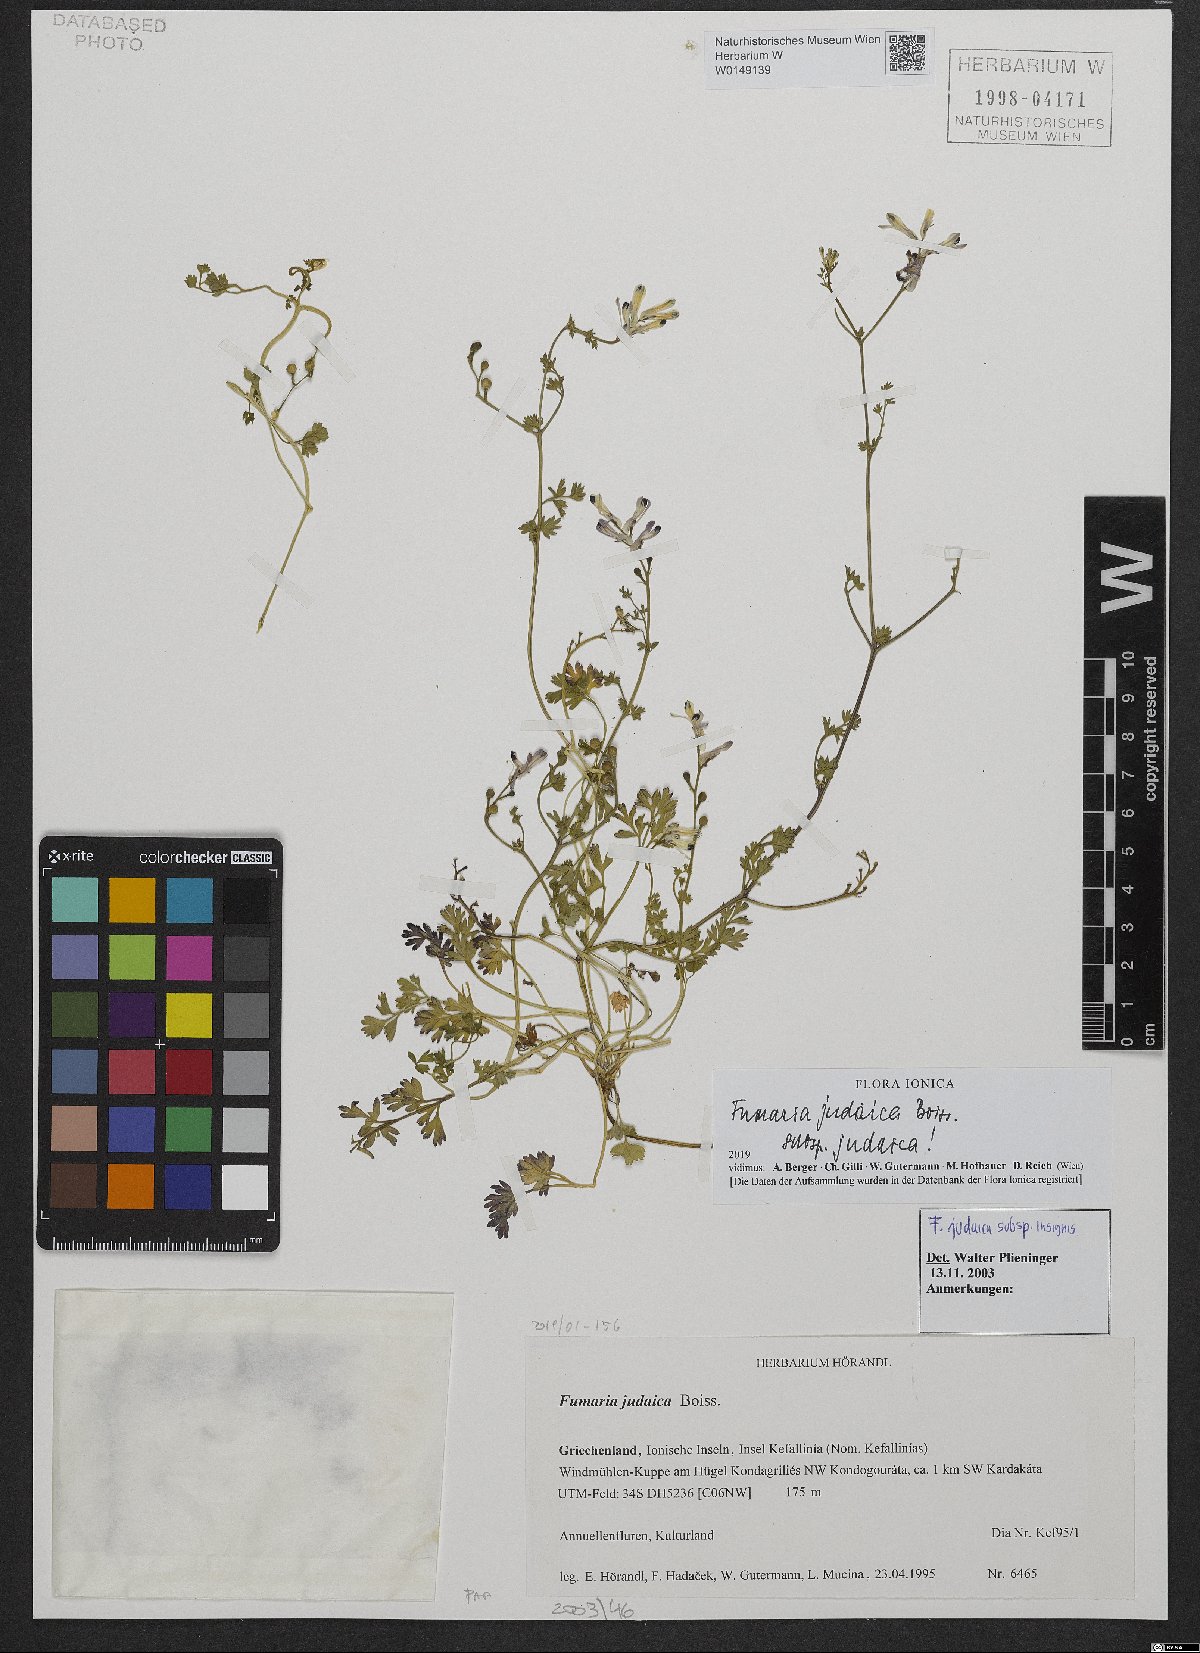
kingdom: Plantae
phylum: Tracheophyta
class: Magnoliopsida
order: Ranunculales
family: Papaveraceae
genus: Fumaria
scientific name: Fumaria judaica
